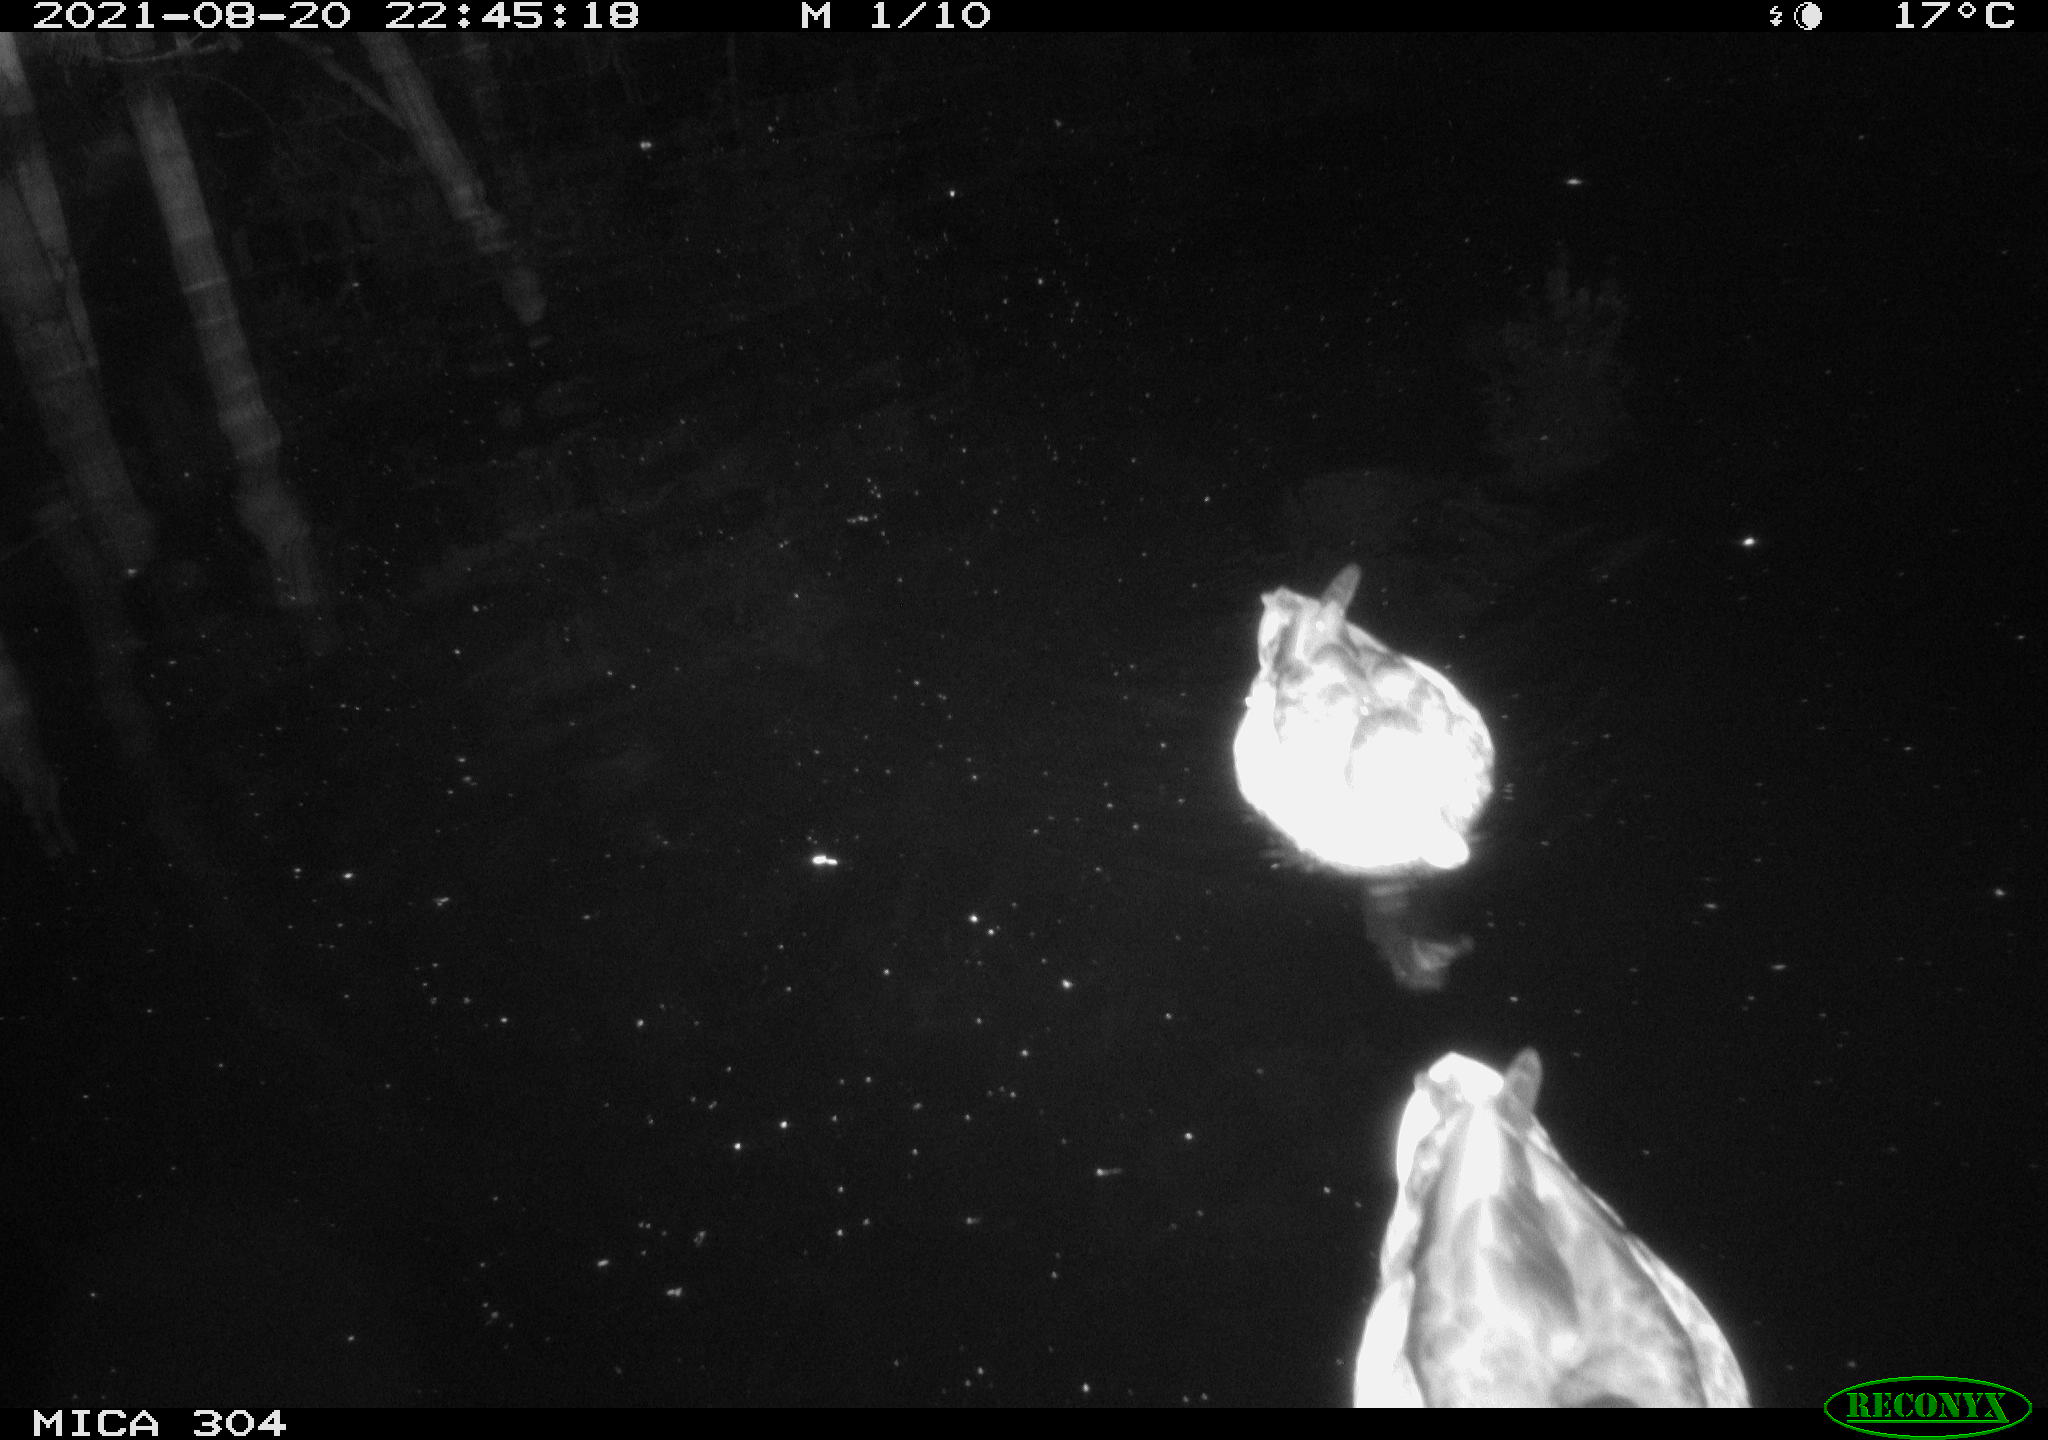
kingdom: Animalia
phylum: Chordata
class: Aves
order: Anseriformes
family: Anatidae
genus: Anas
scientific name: Anas platyrhynchos
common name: Mallard
